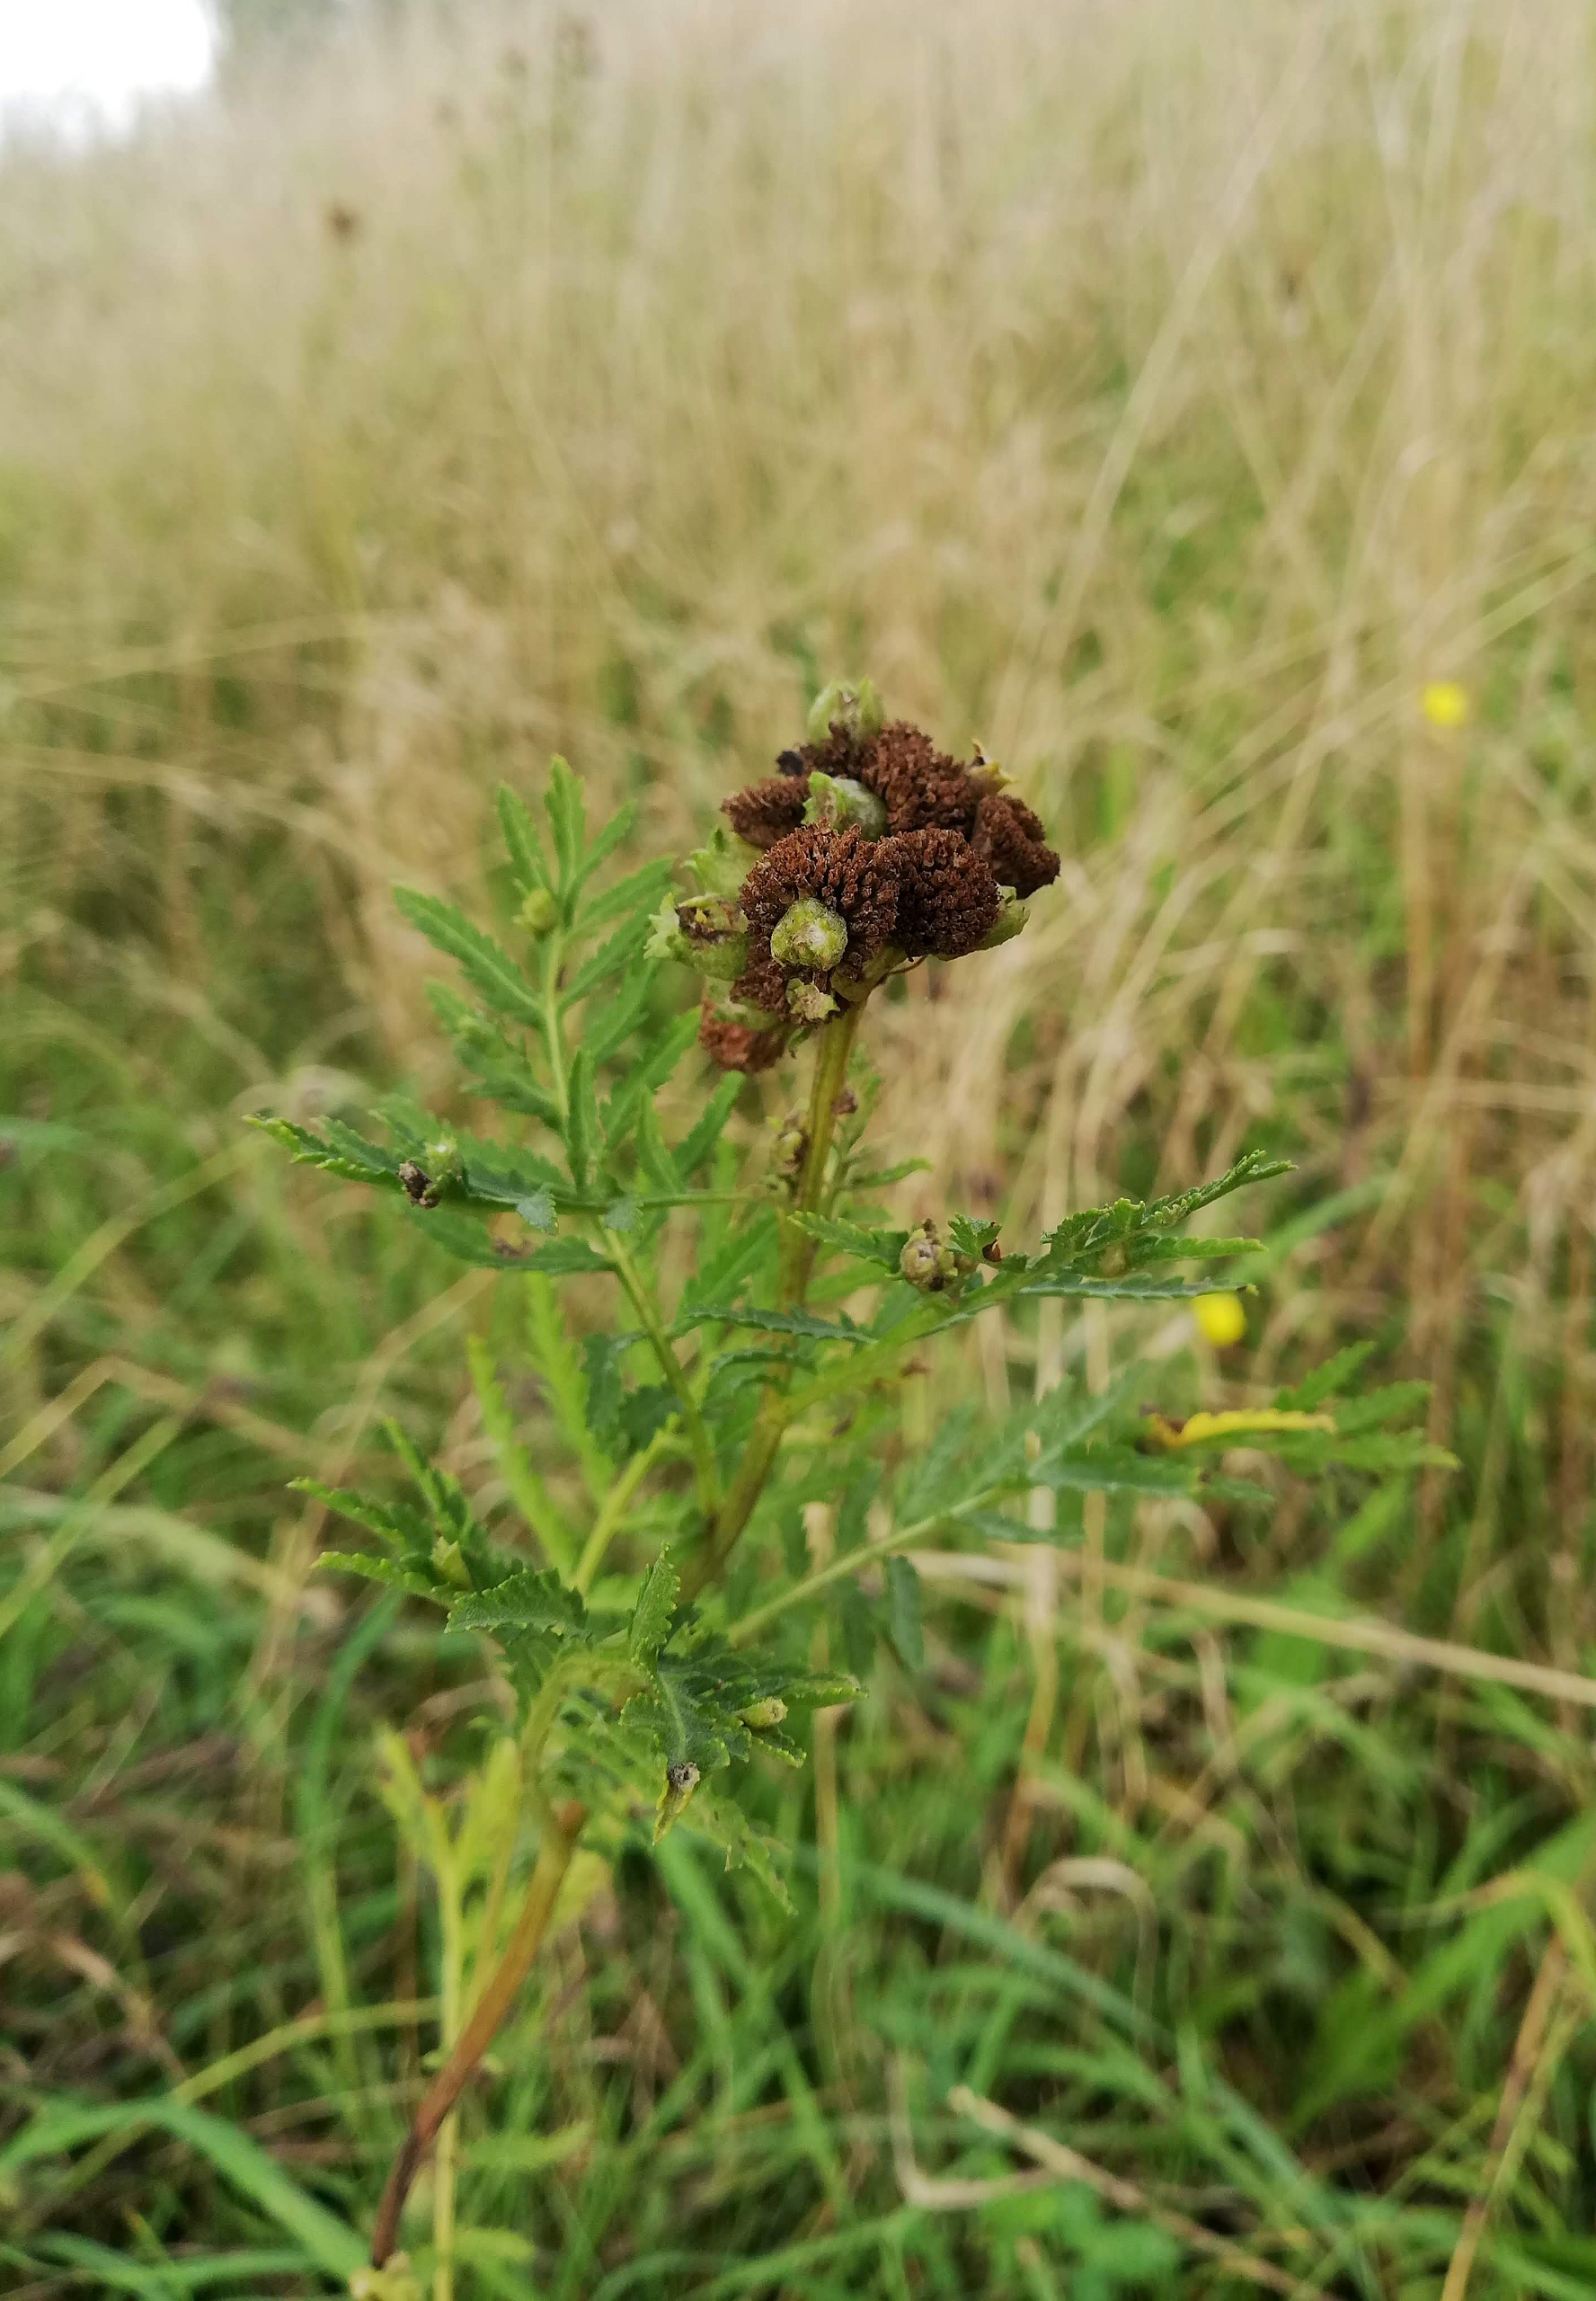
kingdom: Animalia
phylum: Arthropoda
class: Insecta
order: Diptera
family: Cecidomyiidae
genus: Rhopalomyia
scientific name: Rhopalomyia tanaceticolus
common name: Rejnfangalmyg
